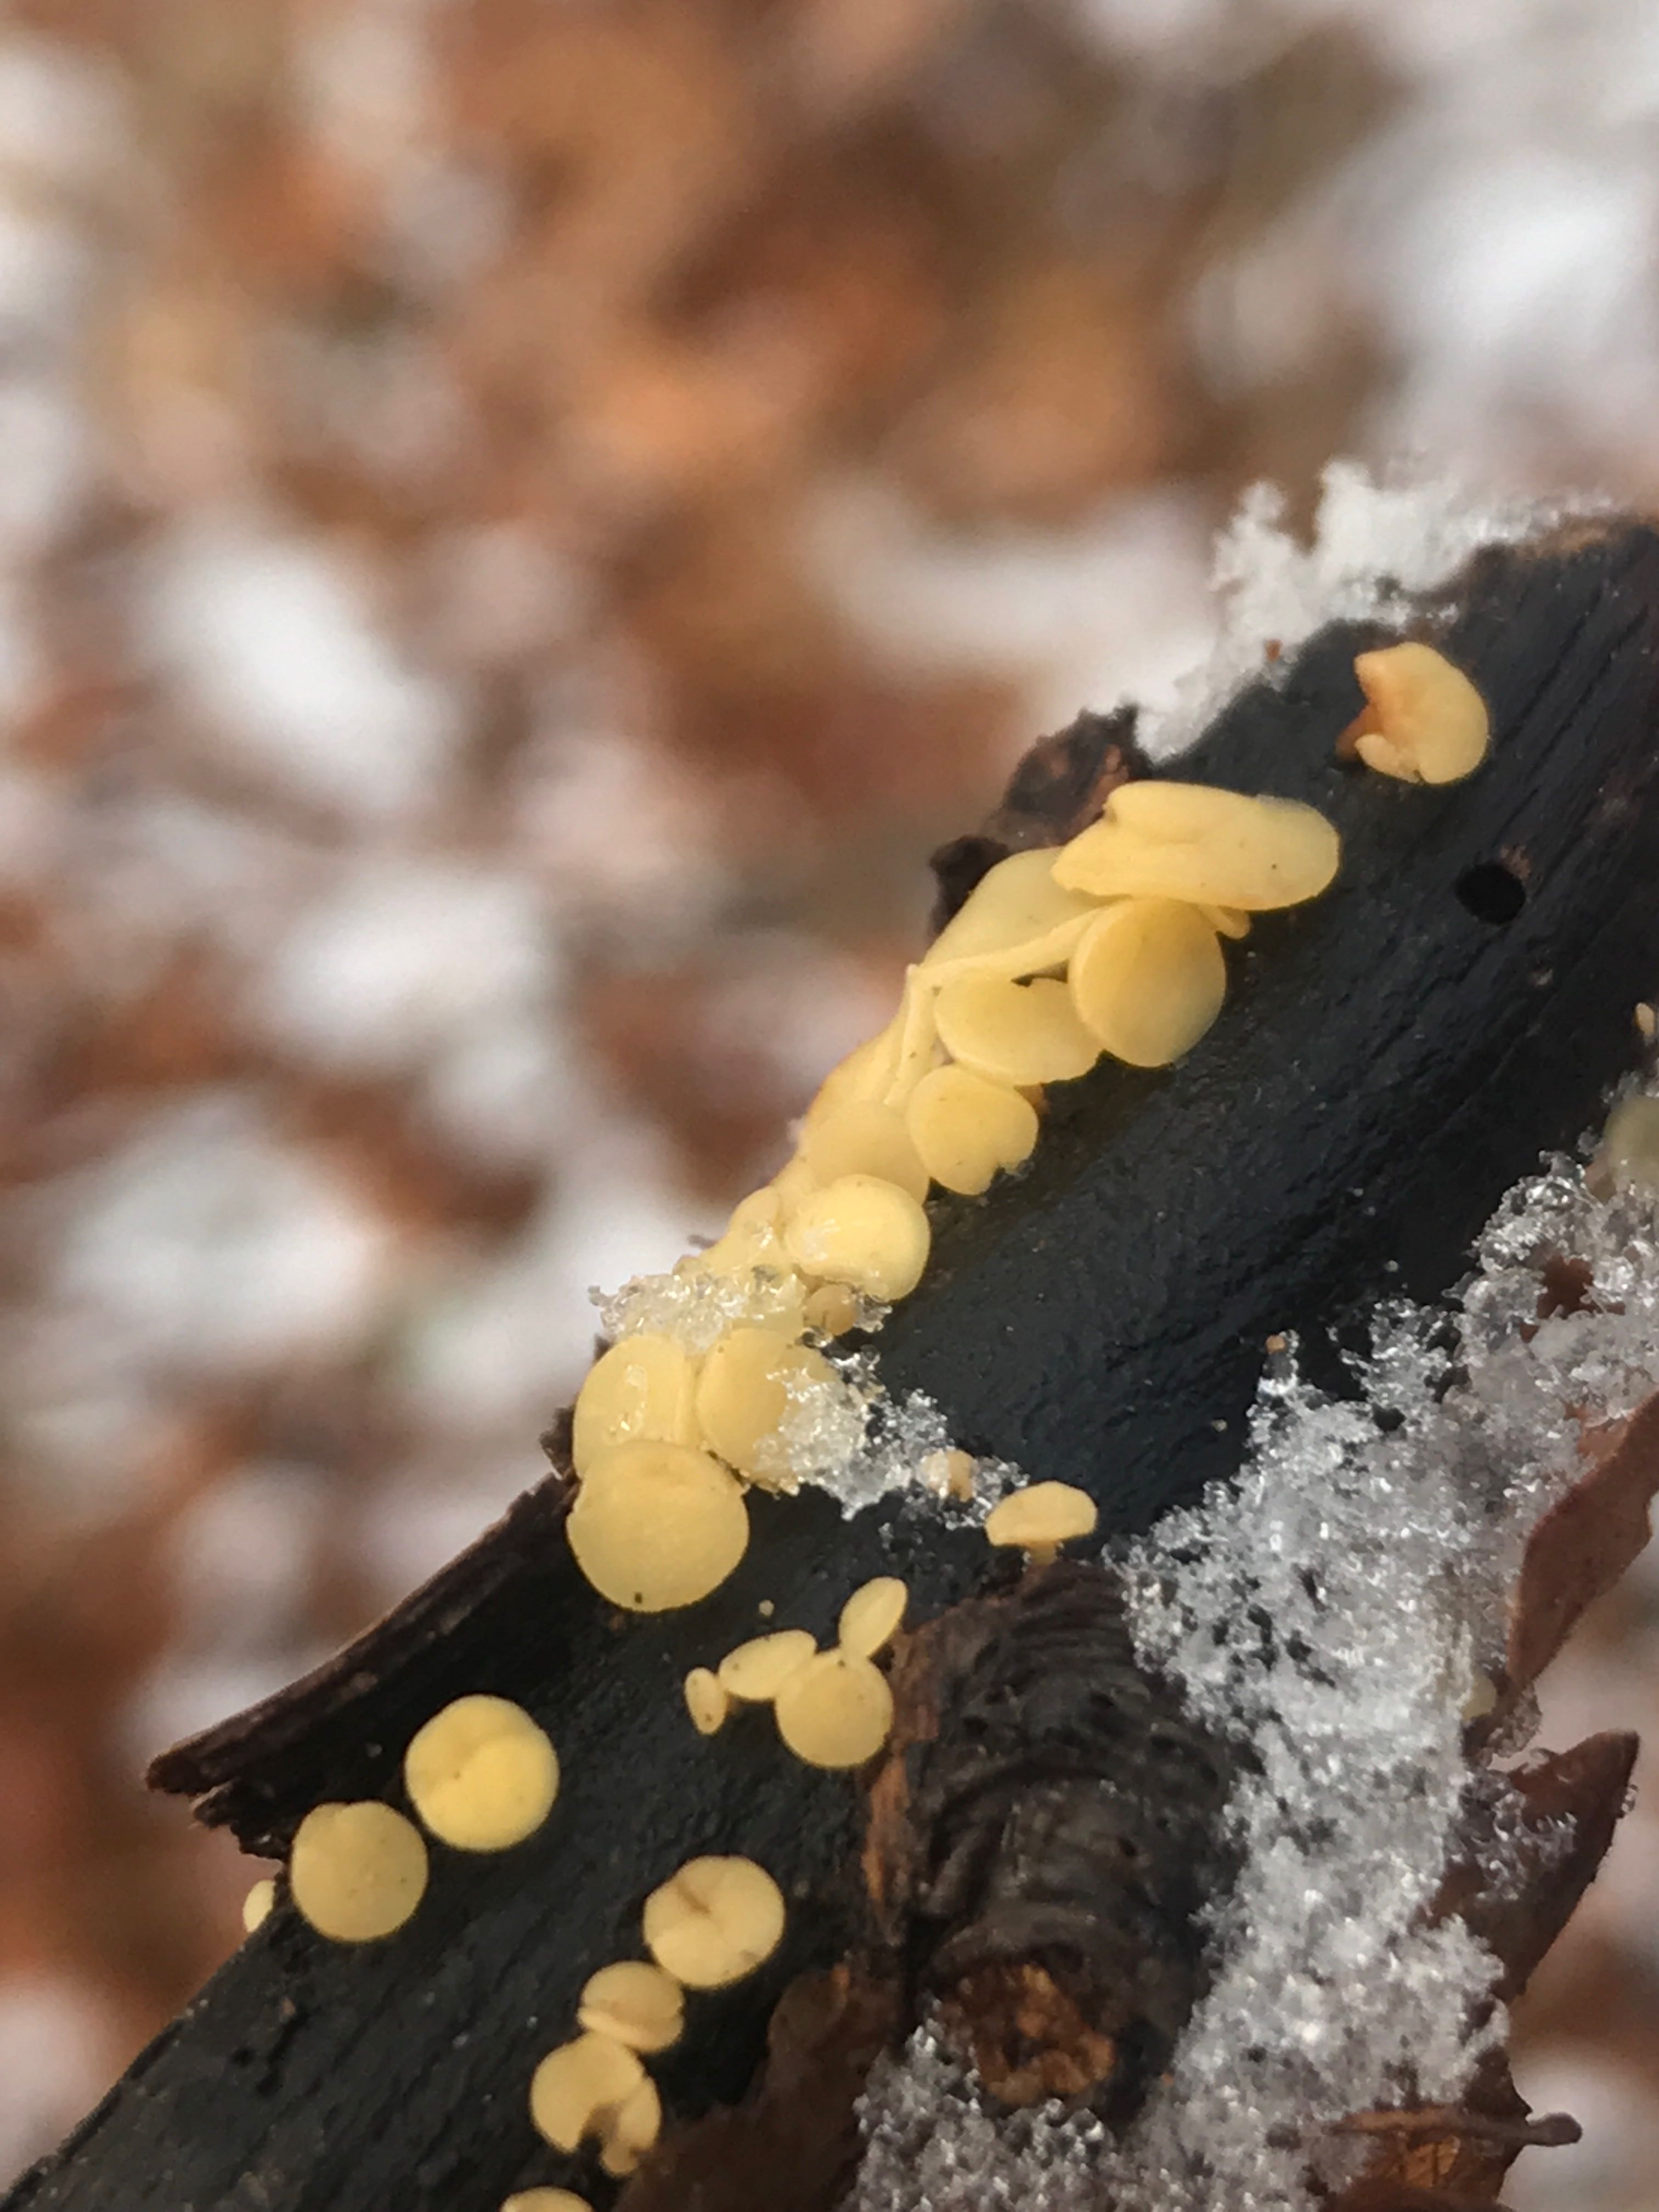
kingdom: Fungi
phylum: Ascomycota
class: Leotiomycetes
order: Helotiales
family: Pezizellaceae
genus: Calycina
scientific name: Calycina citrina
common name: almindelig gulskive
